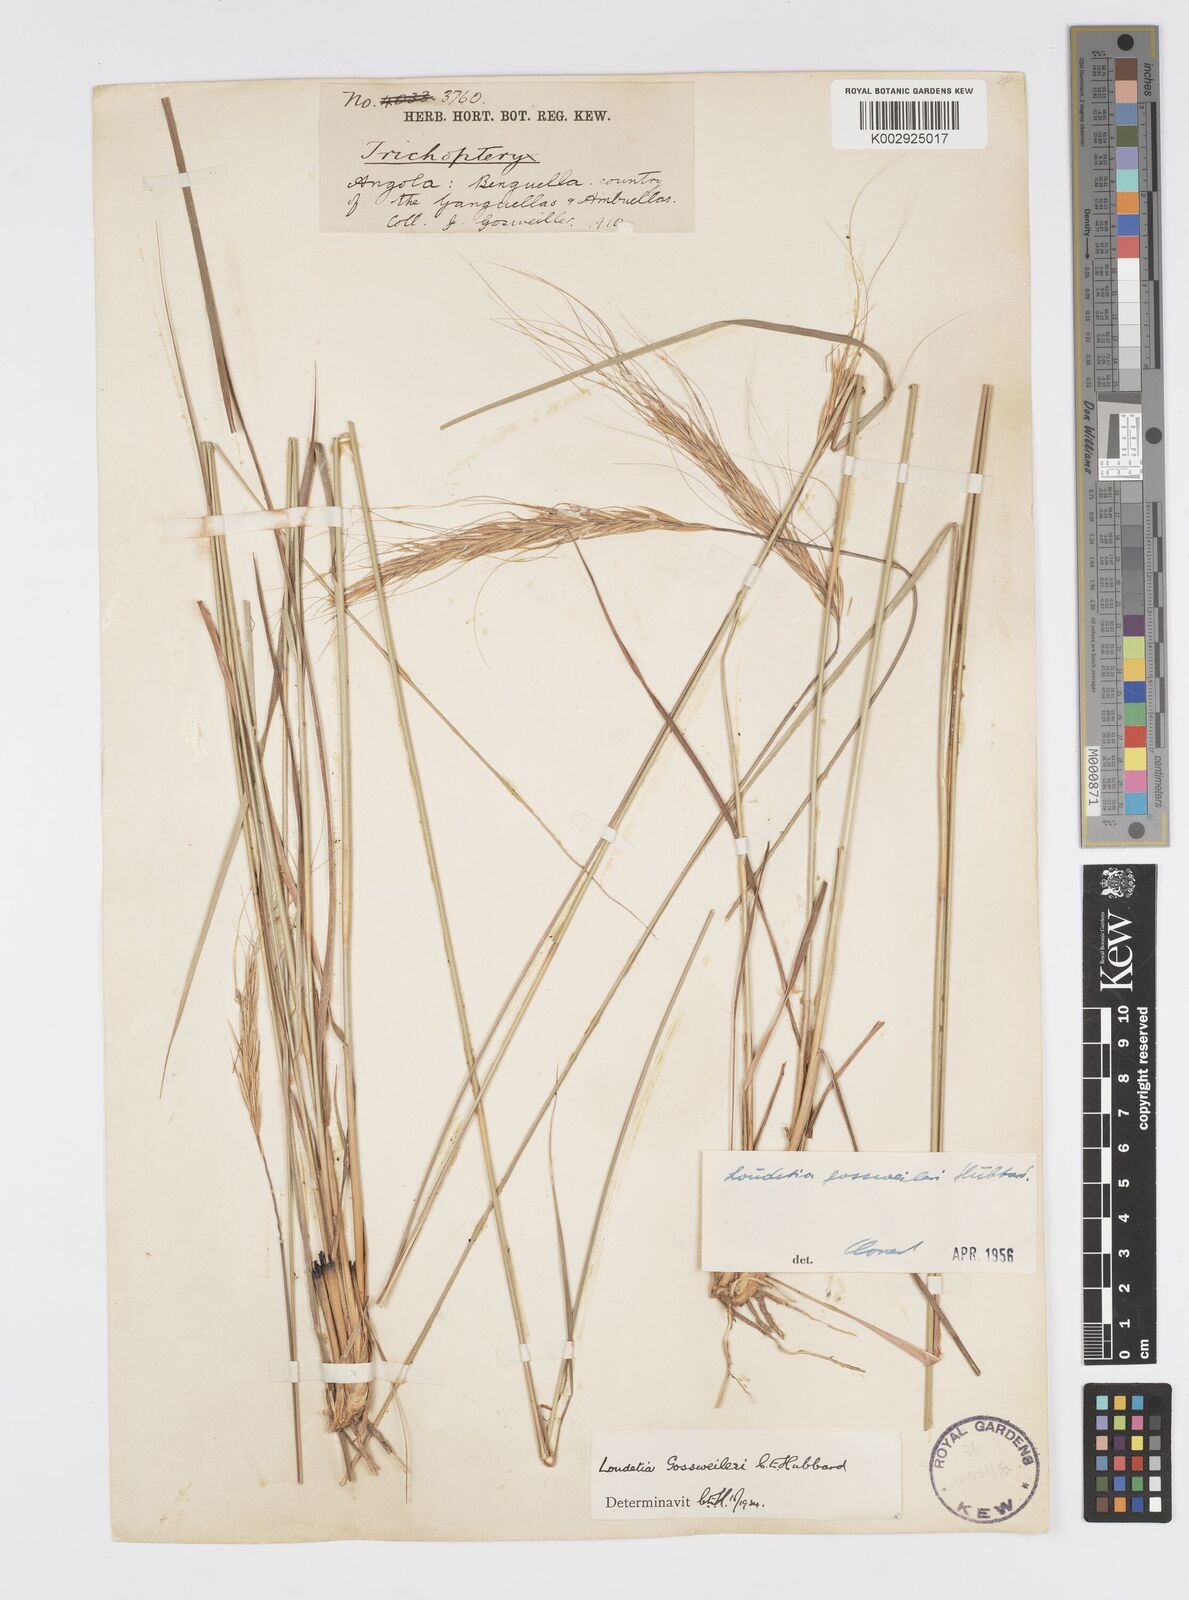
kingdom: Plantae
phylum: Tracheophyta
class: Liliopsida
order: Poales
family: Poaceae
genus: Loudetia
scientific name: Loudetia densispica
